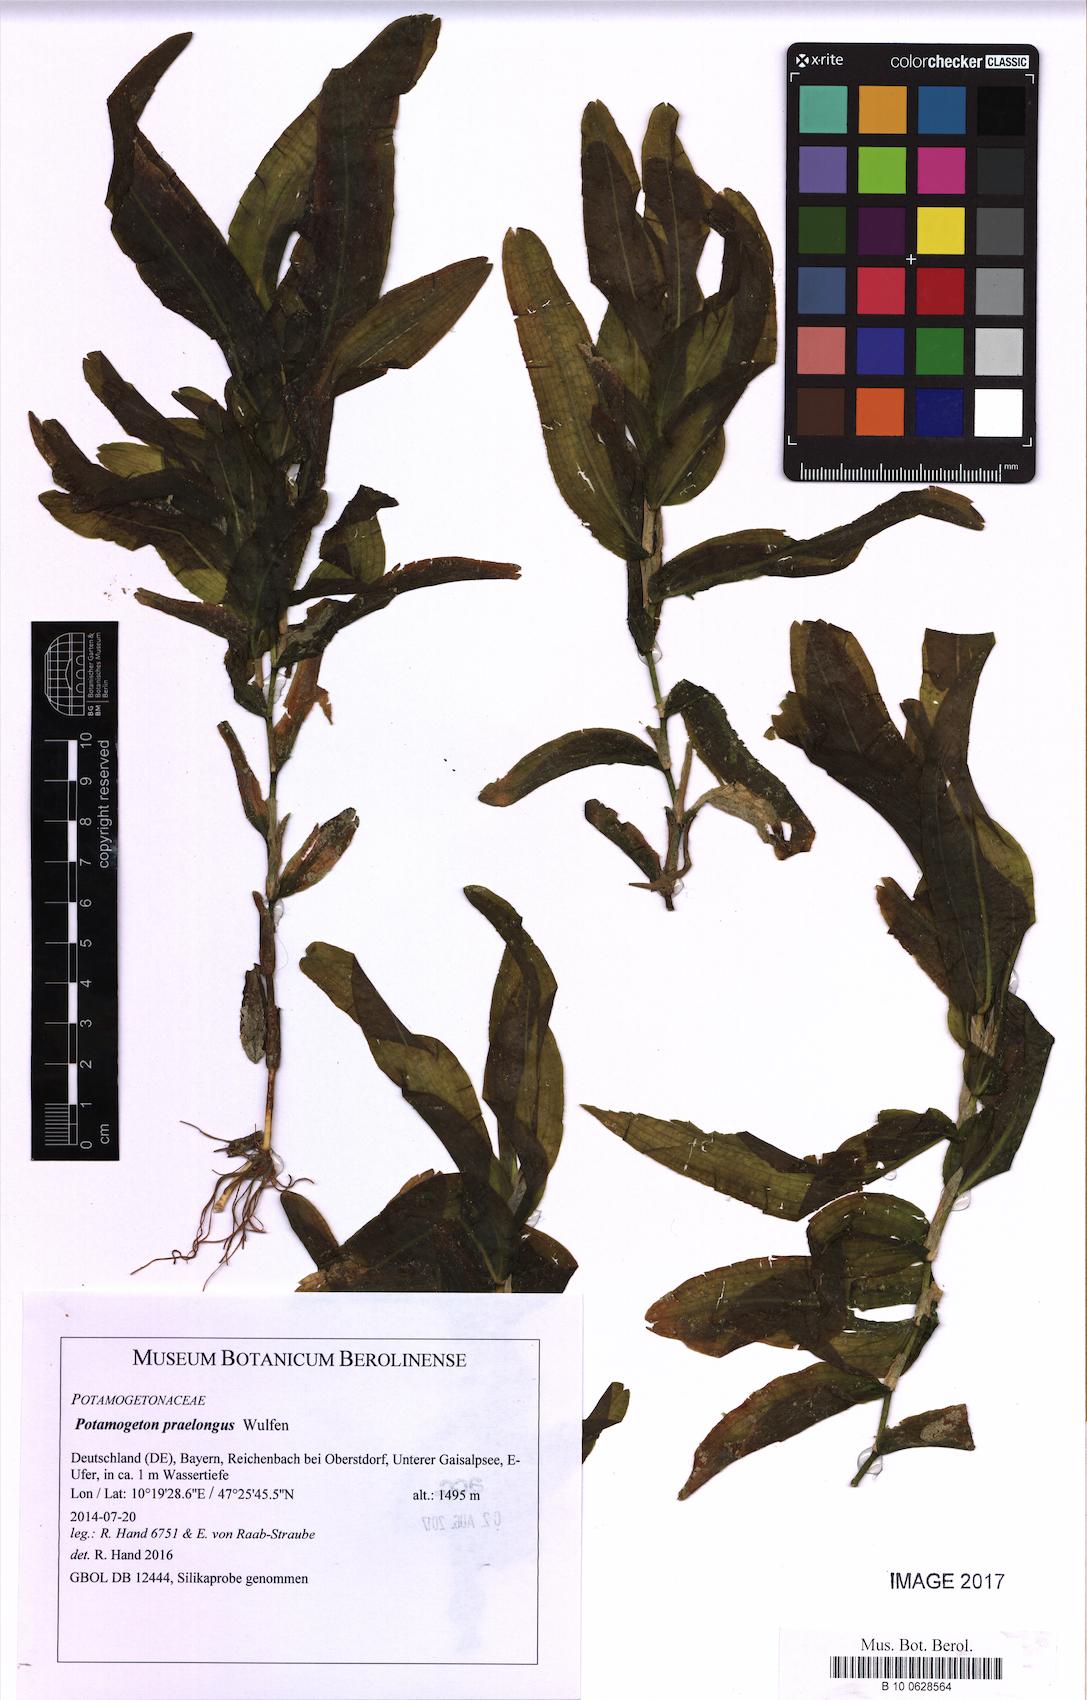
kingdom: Plantae
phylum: Tracheophyta
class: Liliopsida
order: Alismatales
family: Potamogetonaceae
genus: Potamogeton
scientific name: Potamogeton praelongus
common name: Long-stalked pondweed
